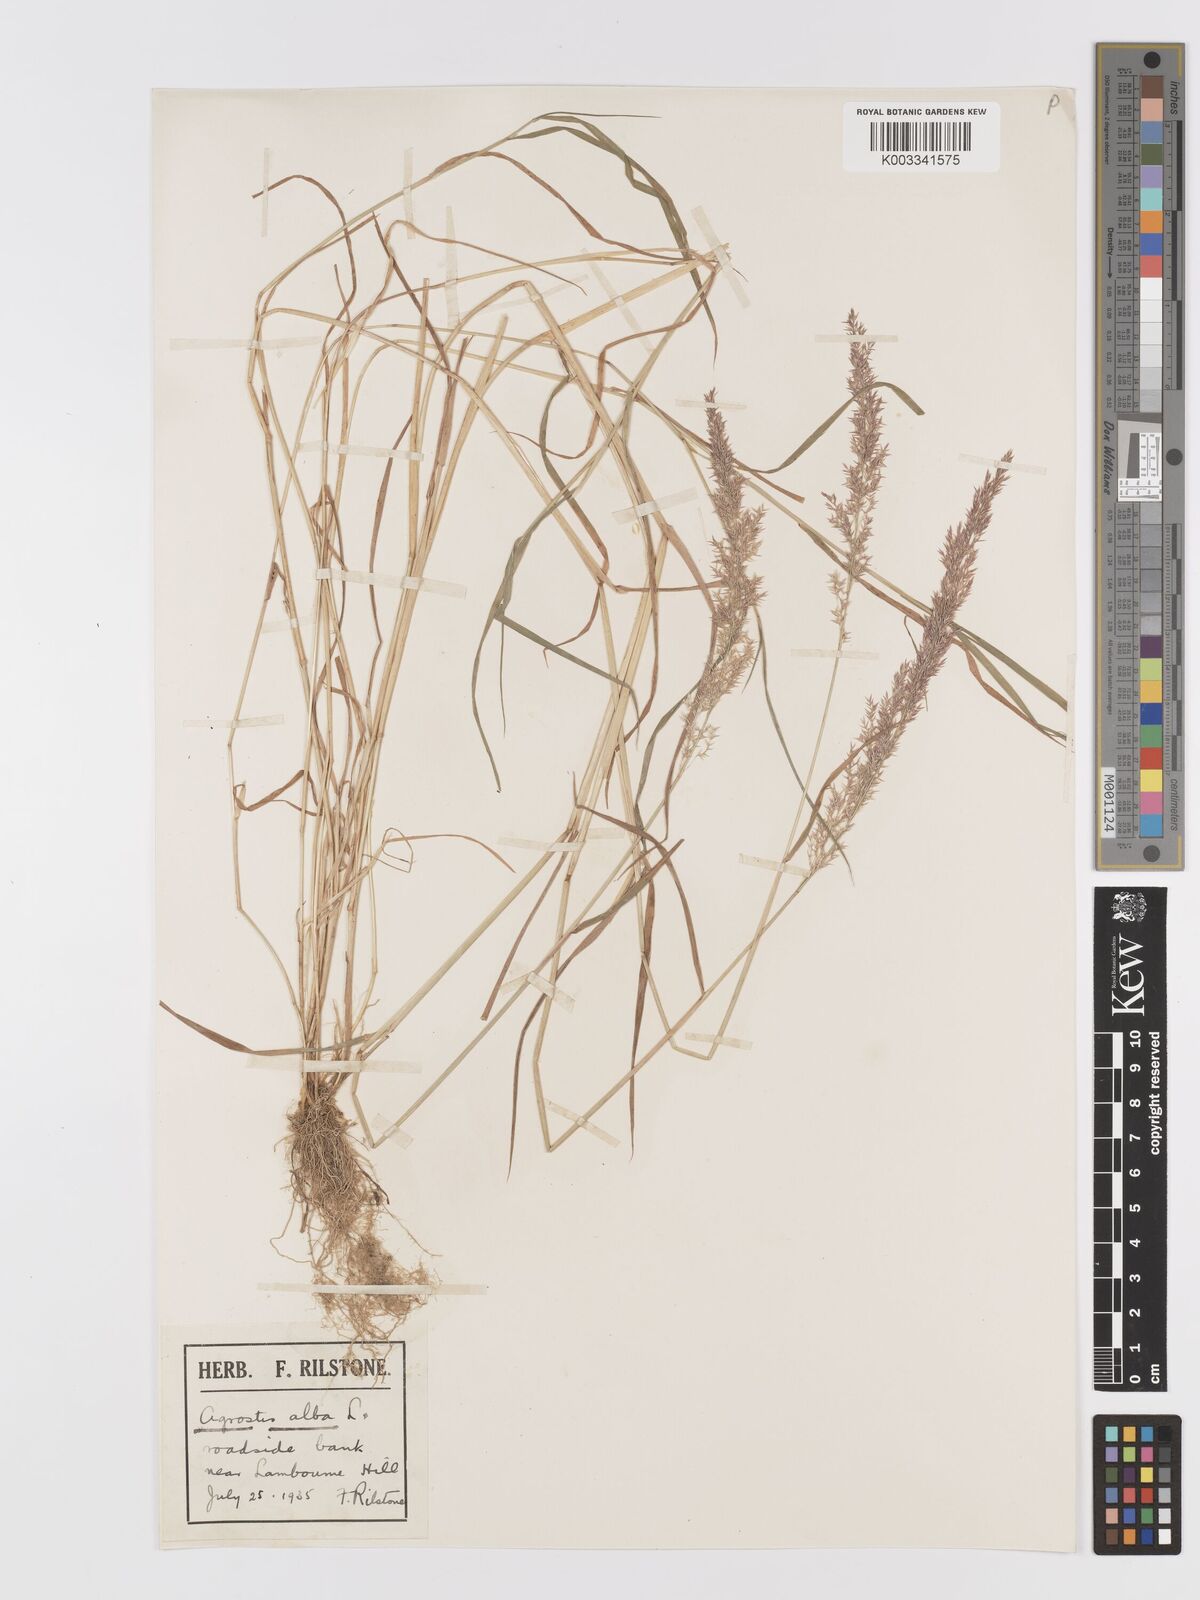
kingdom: Plantae
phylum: Tracheophyta
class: Liliopsida
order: Poales
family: Poaceae
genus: Agrostis
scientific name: Agrostis stolonifera
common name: Creeping bentgrass
